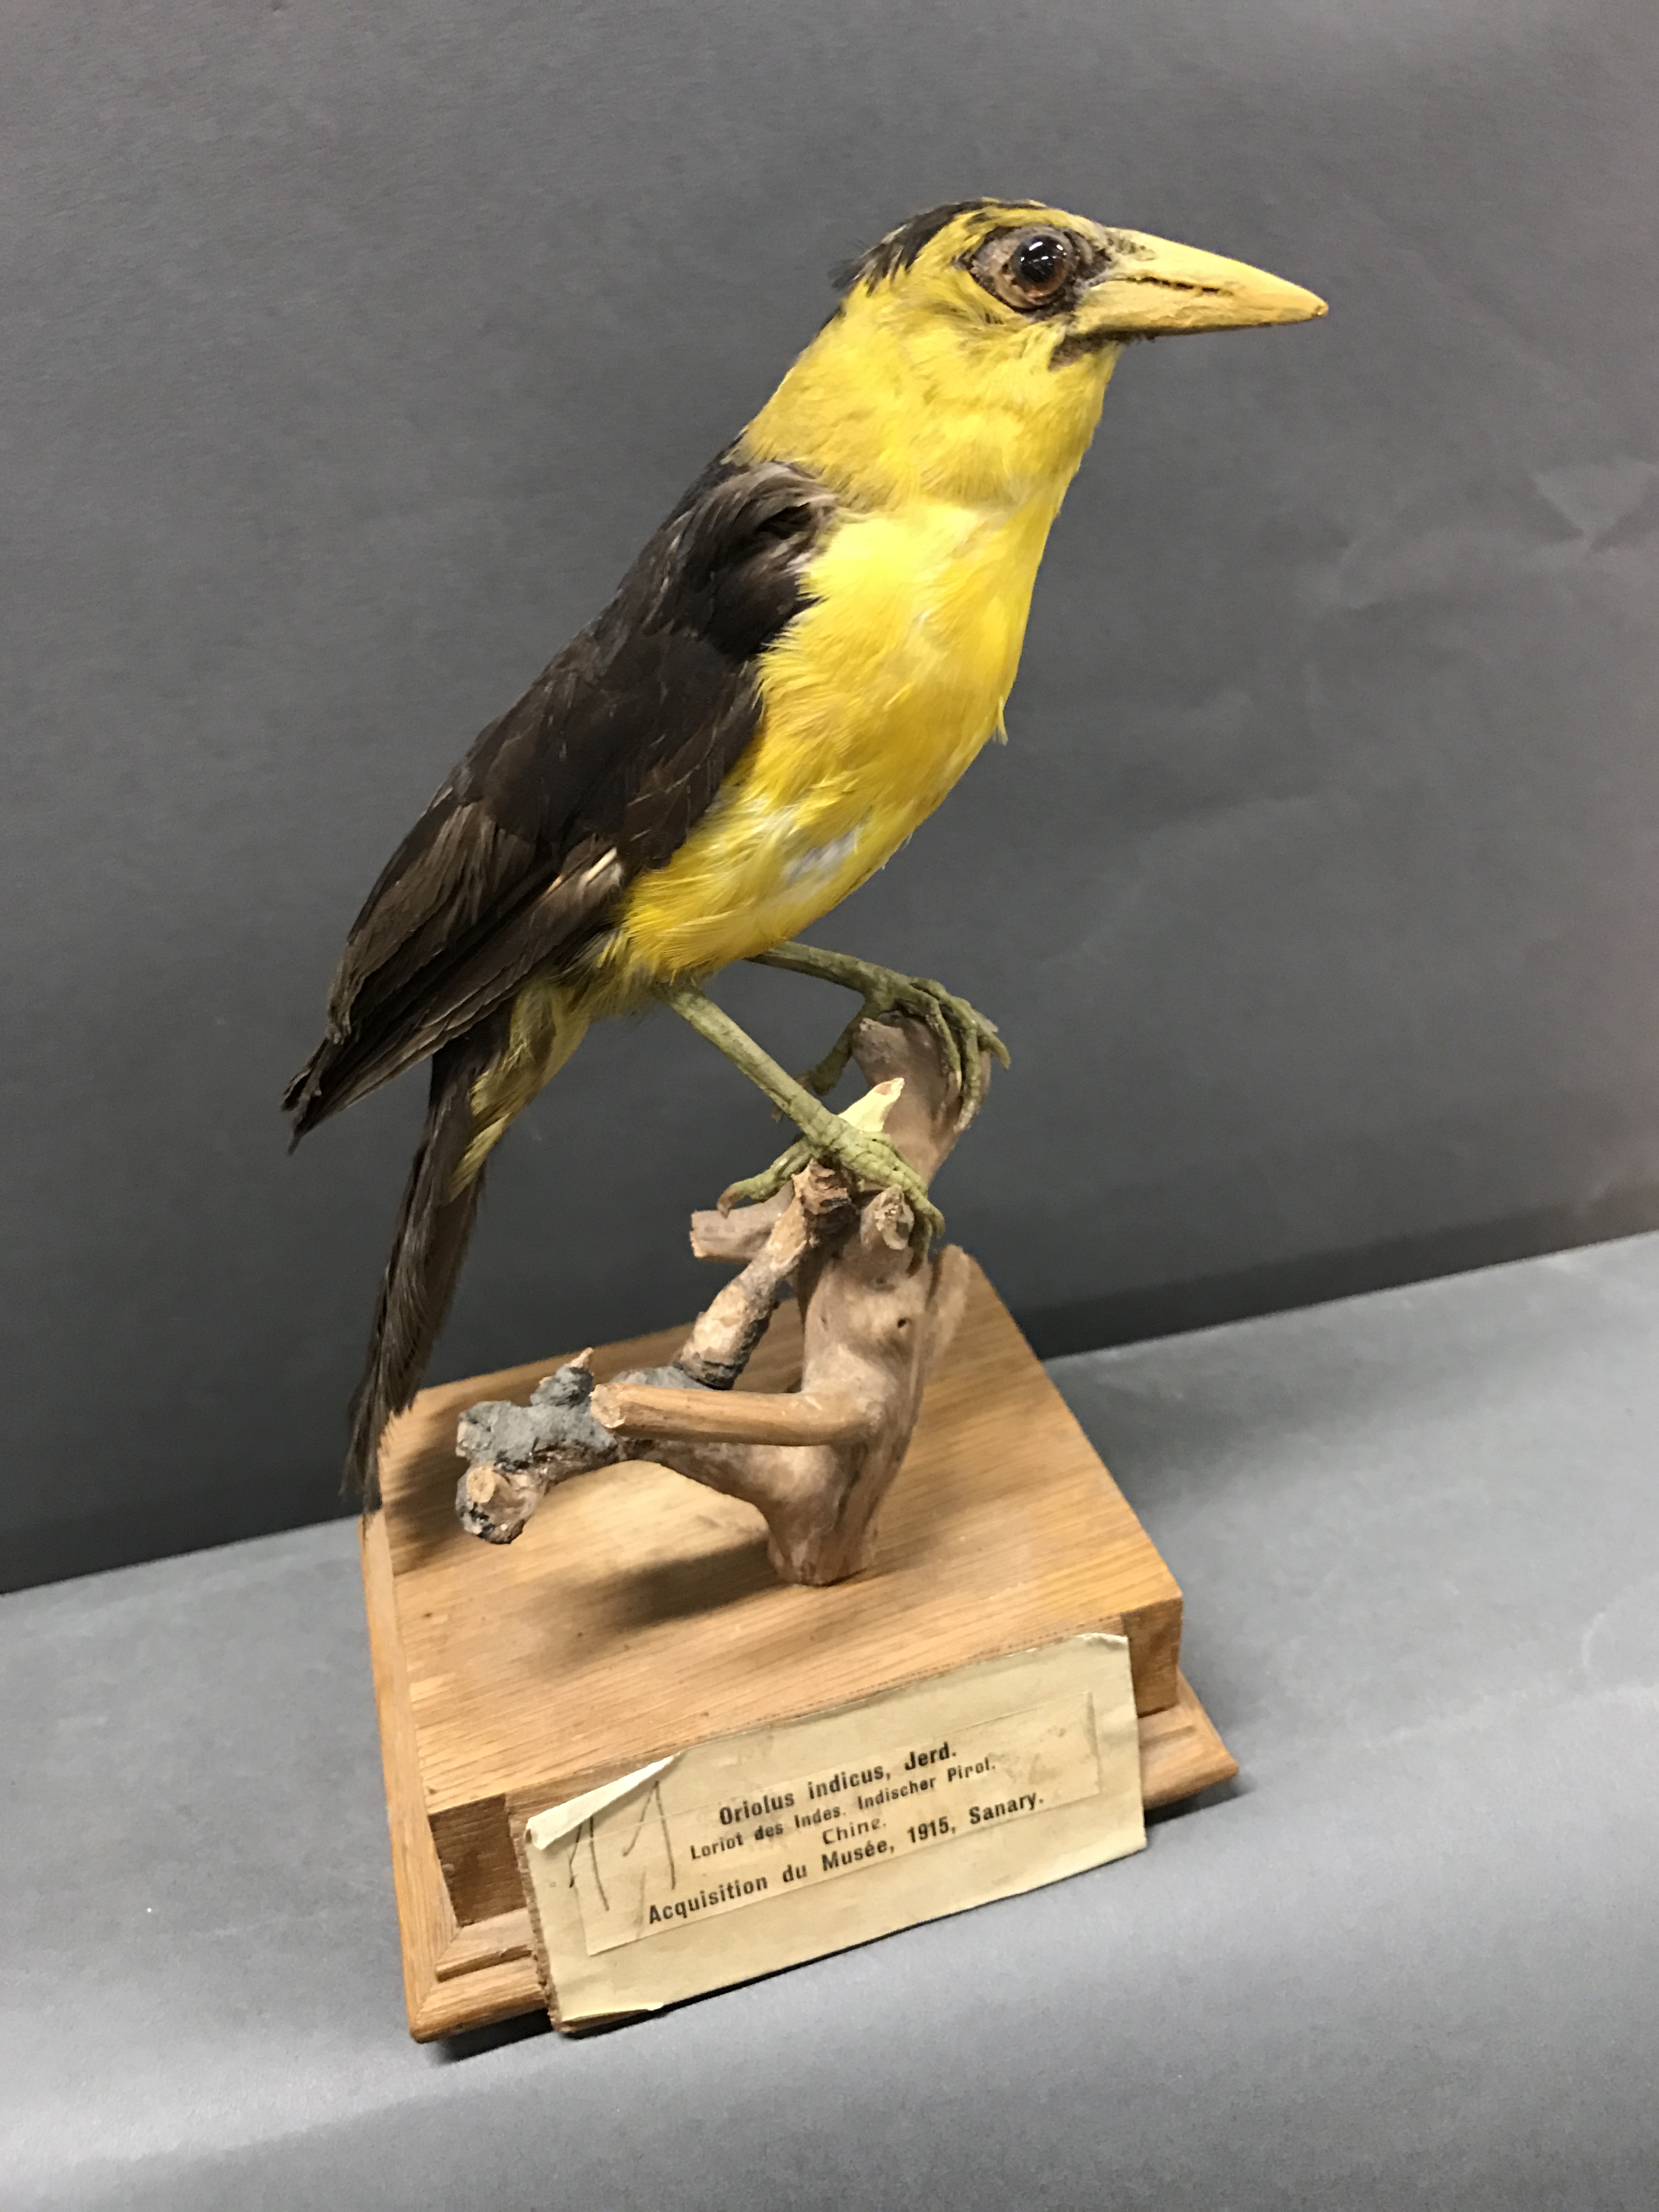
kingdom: Animalia
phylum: Chordata
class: Aves
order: Passeriformes
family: Oriolidae
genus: Oriolus
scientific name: Oriolus chinensis
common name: Black-naped oriole
